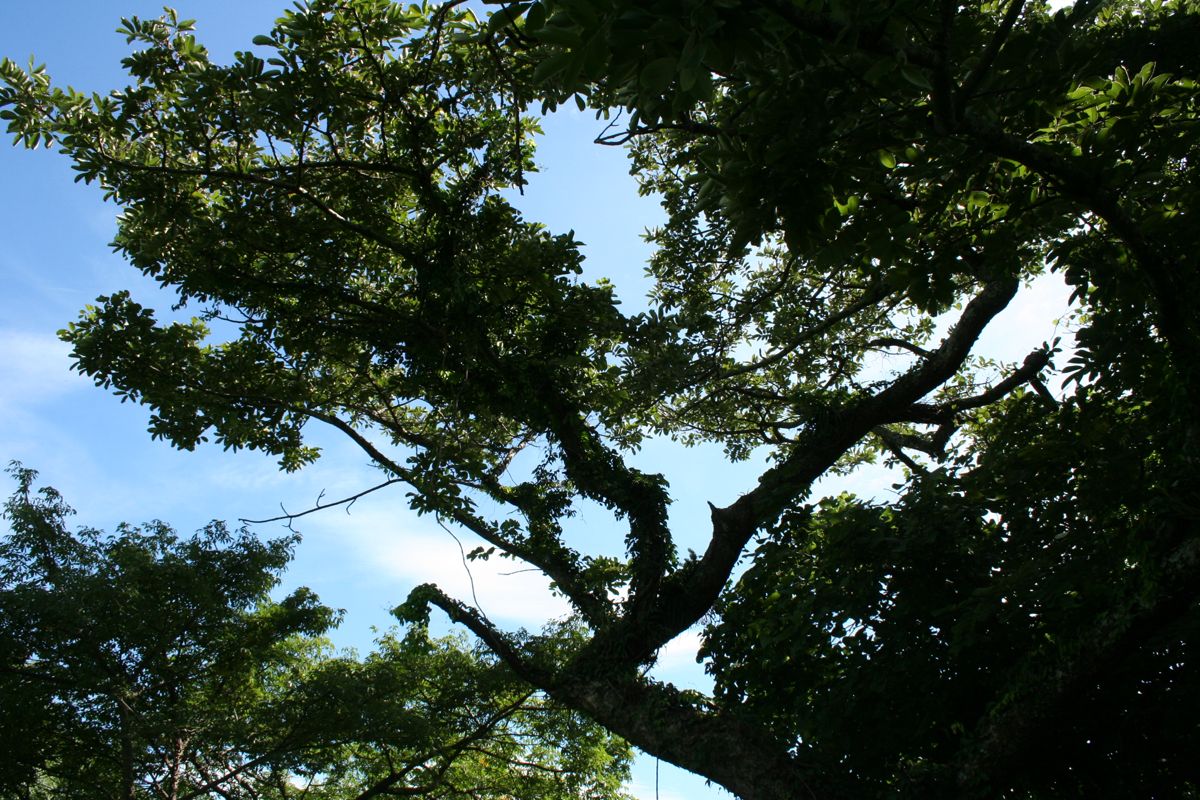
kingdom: Plantae
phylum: Tracheophyta
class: Magnoliopsida
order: Fabales
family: Fabaceae
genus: Piscidia
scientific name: Piscidia carthagenensis
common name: Stinkwood
